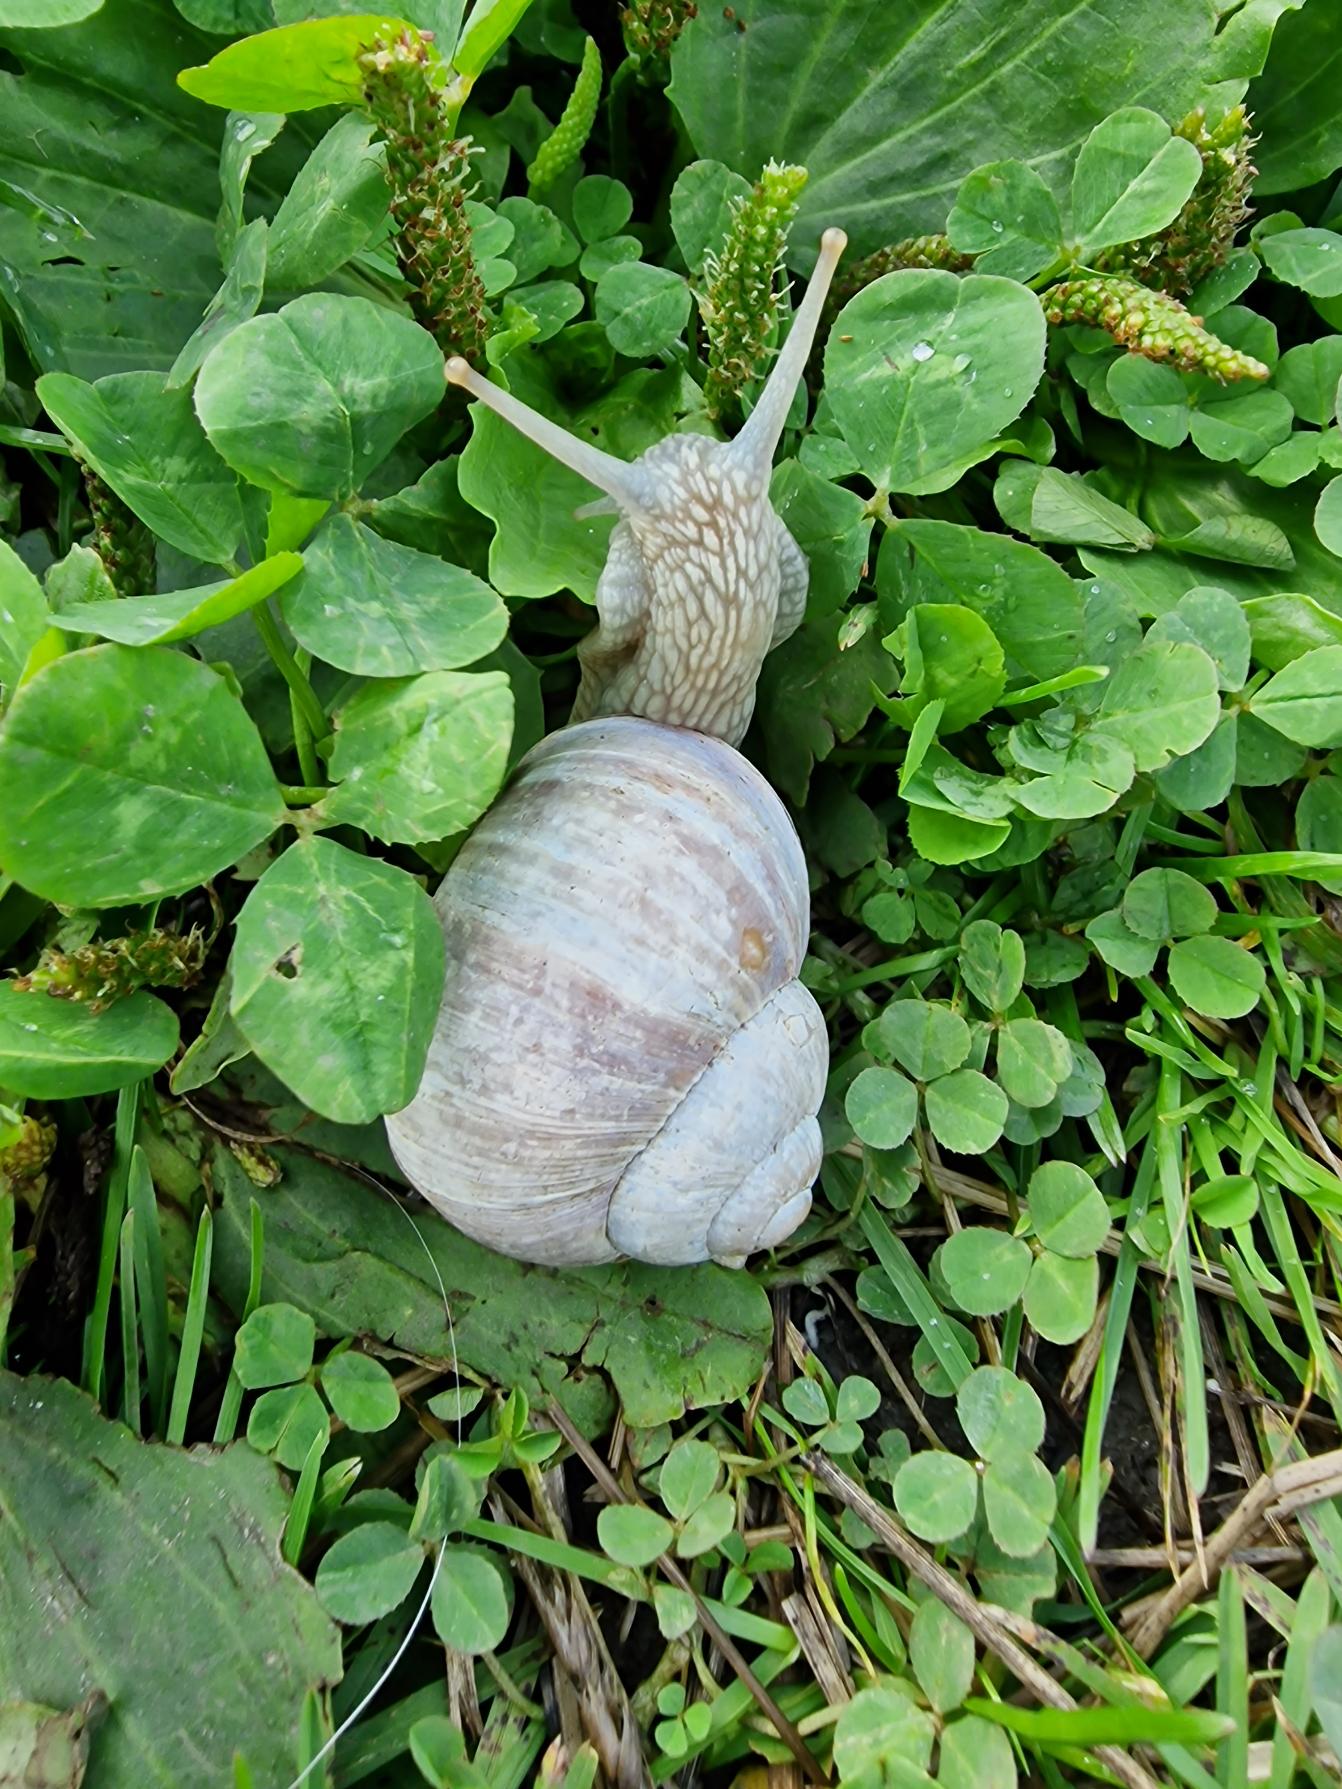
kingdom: Animalia
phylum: Mollusca
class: Gastropoda
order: Stylommatophora
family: Helicidae
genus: Helix
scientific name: Helix pomatia
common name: Vinbjergsnegl
